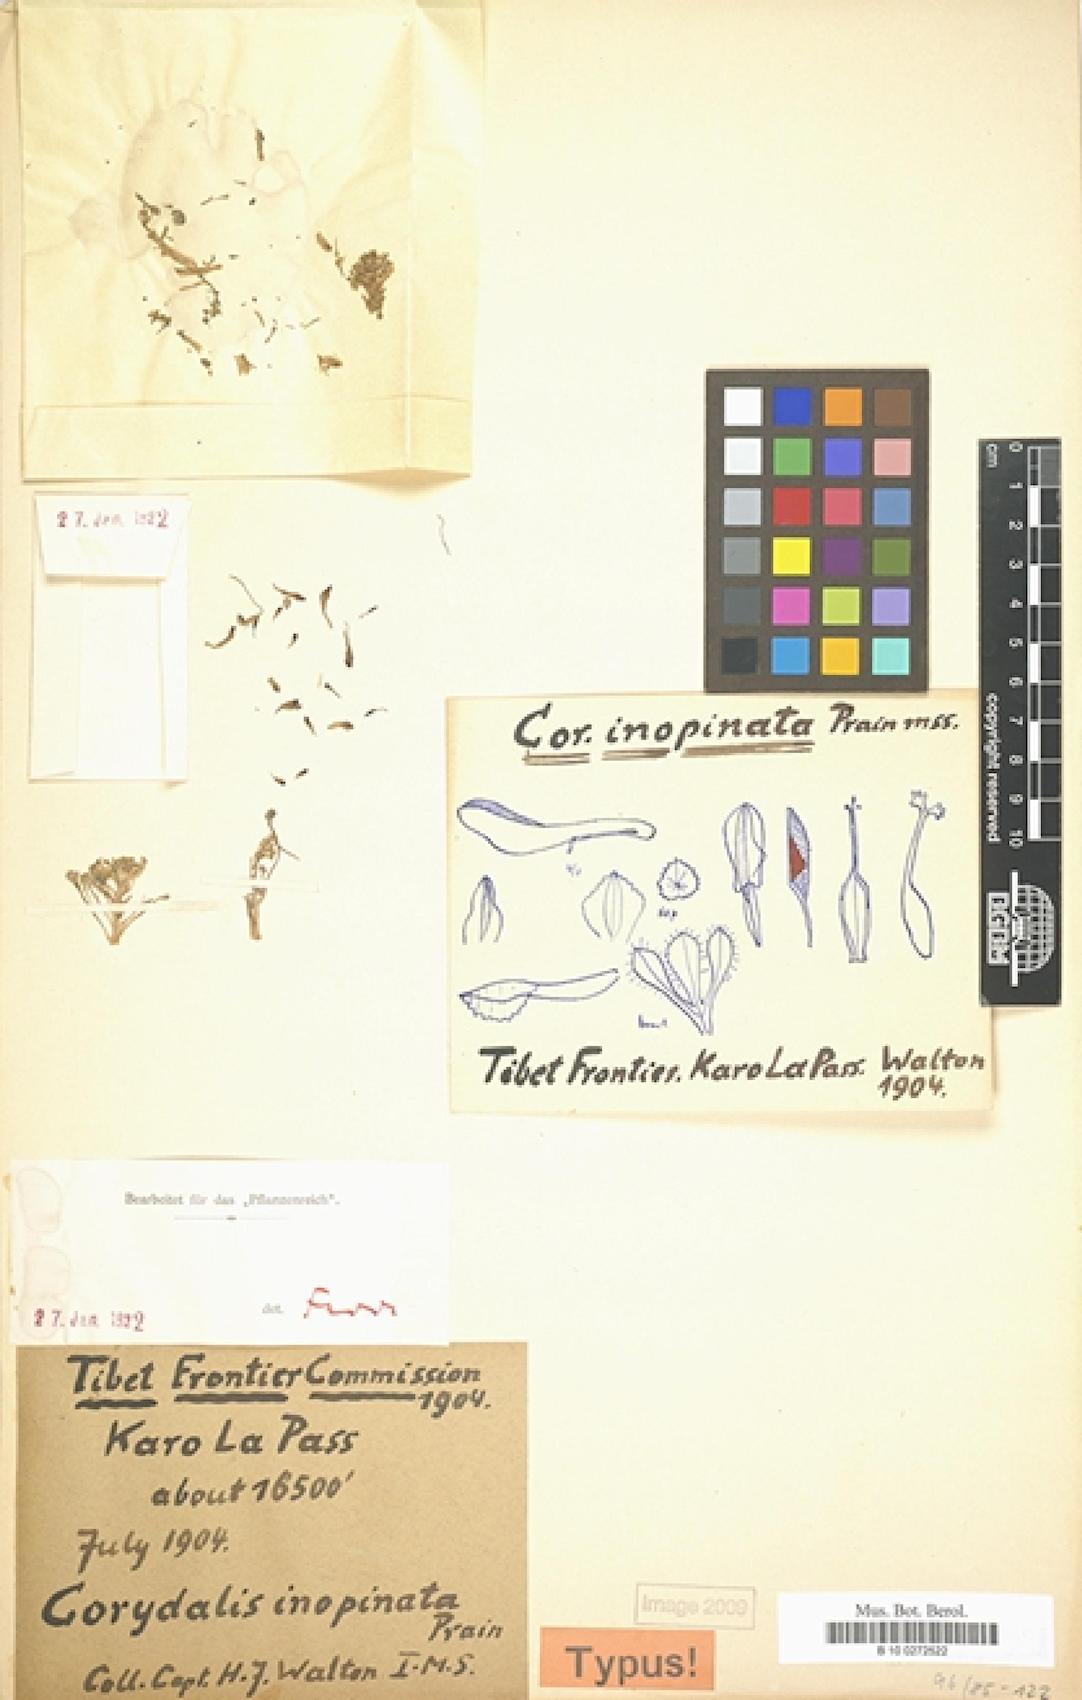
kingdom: Plantae
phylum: Tracheophyta
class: Magnoliopsida
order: Ranunculales
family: Papaveraceae
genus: Corydalis
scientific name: Corydalis inopinata
